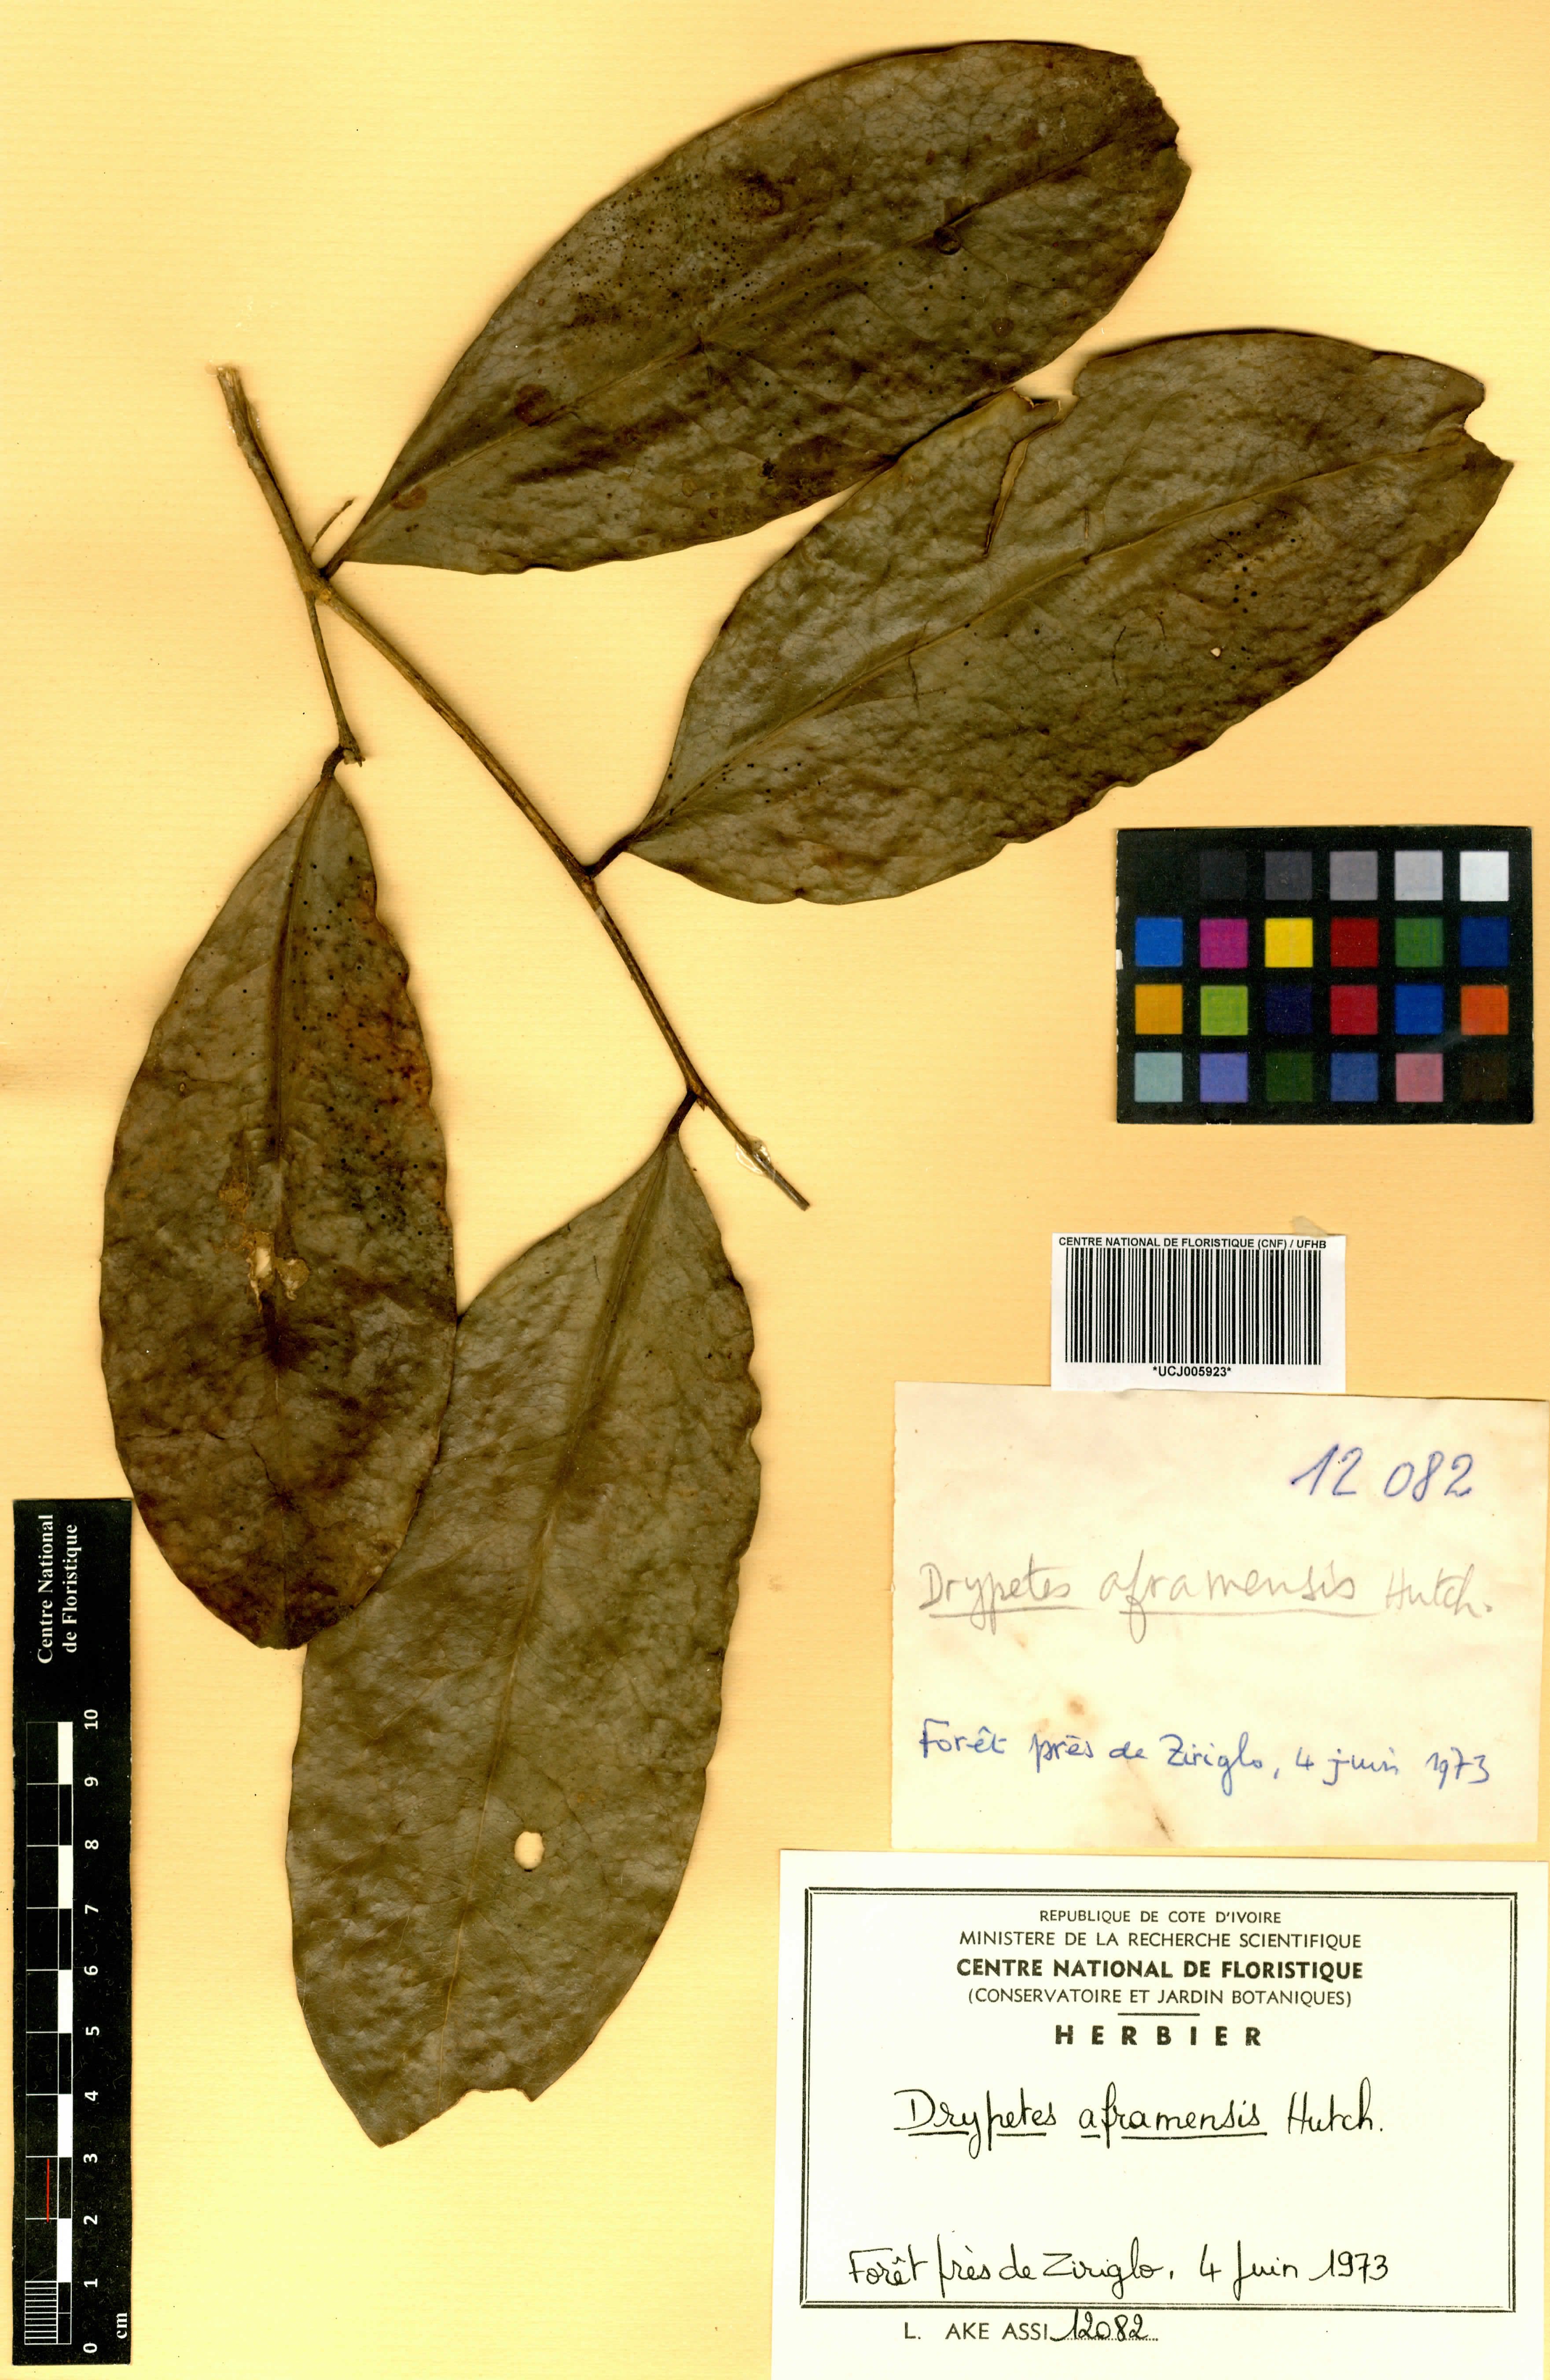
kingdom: Plantae
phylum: Tracheophyta
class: Magnoliopsida
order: Malpighiales
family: Putranjivaceae
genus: Drypetes
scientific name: Drypetes aframensis
